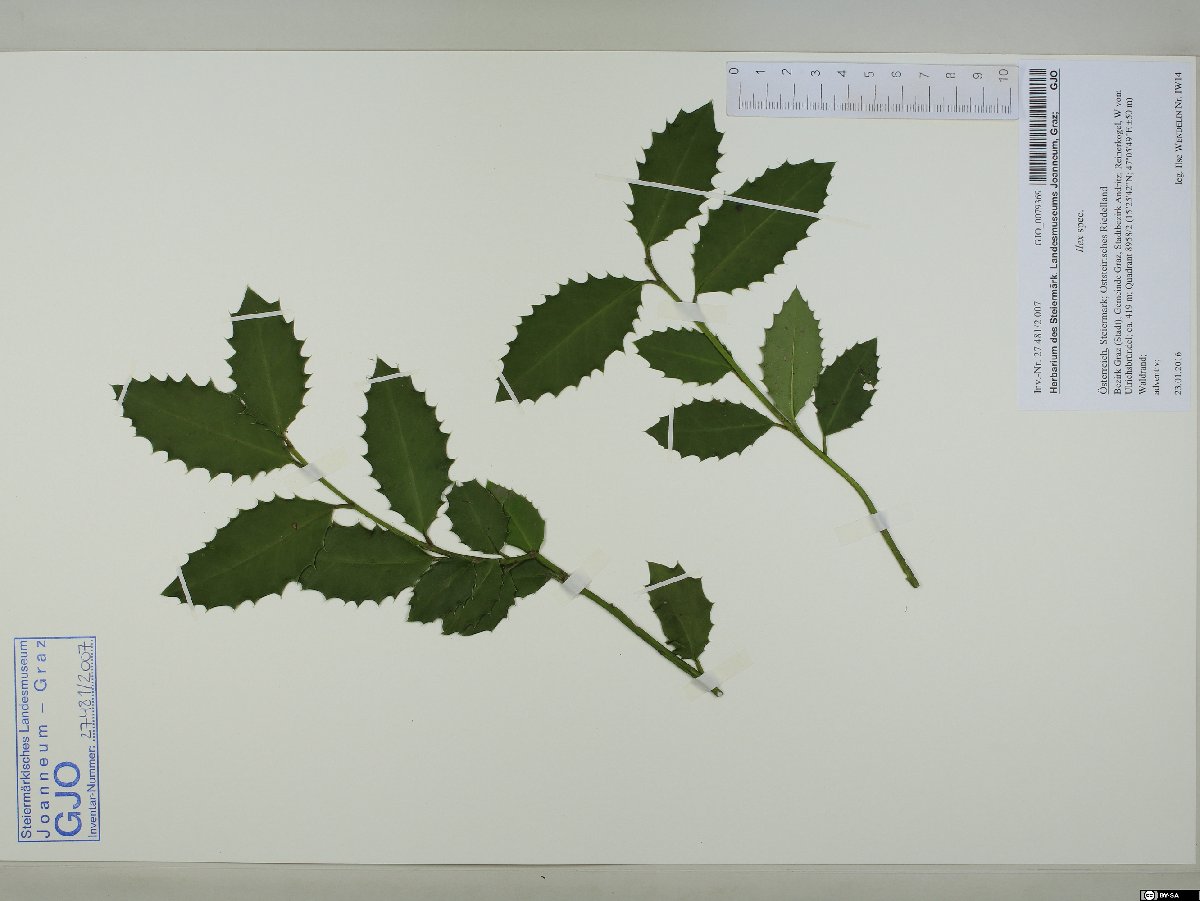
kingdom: Plantae
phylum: Tracheophyta
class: Magnoliopsida
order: Aquifoliales
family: Aquifoliaceae
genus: Ilex
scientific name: Ilex
